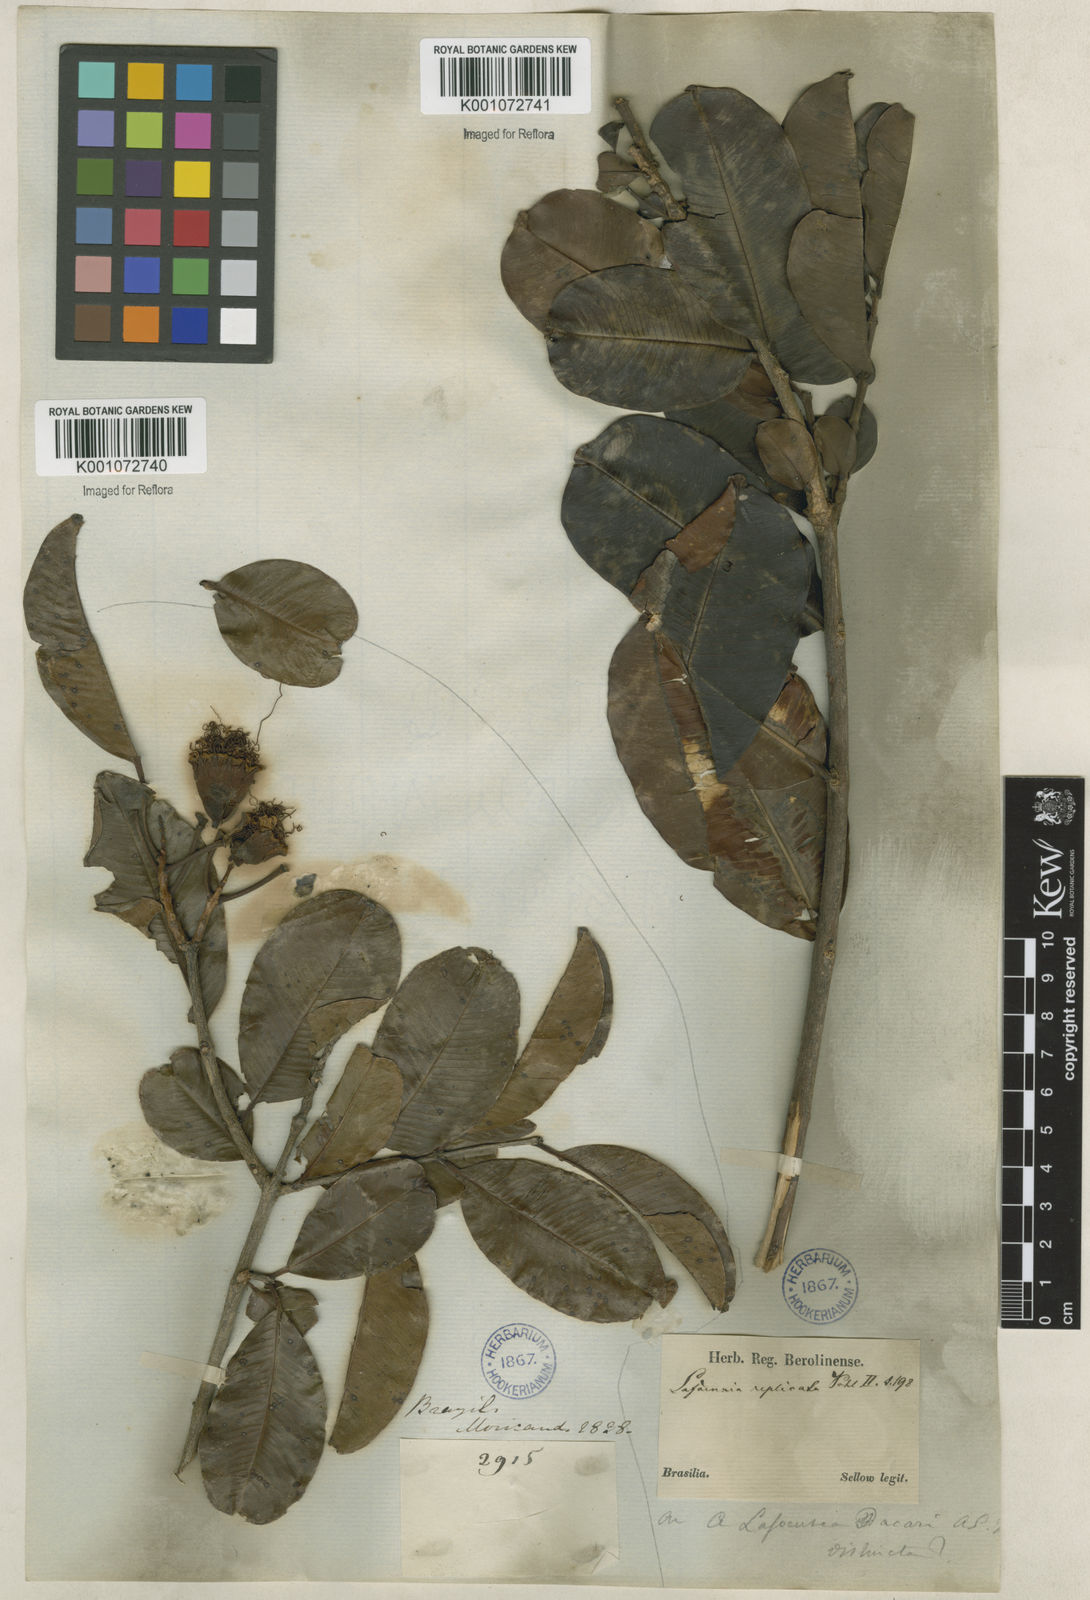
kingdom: Plantae
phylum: Tracheophyta
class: Magnoliopsida
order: Myrtales
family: Lythraceae
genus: Lafoensia
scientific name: Lafoensia vandelliana
